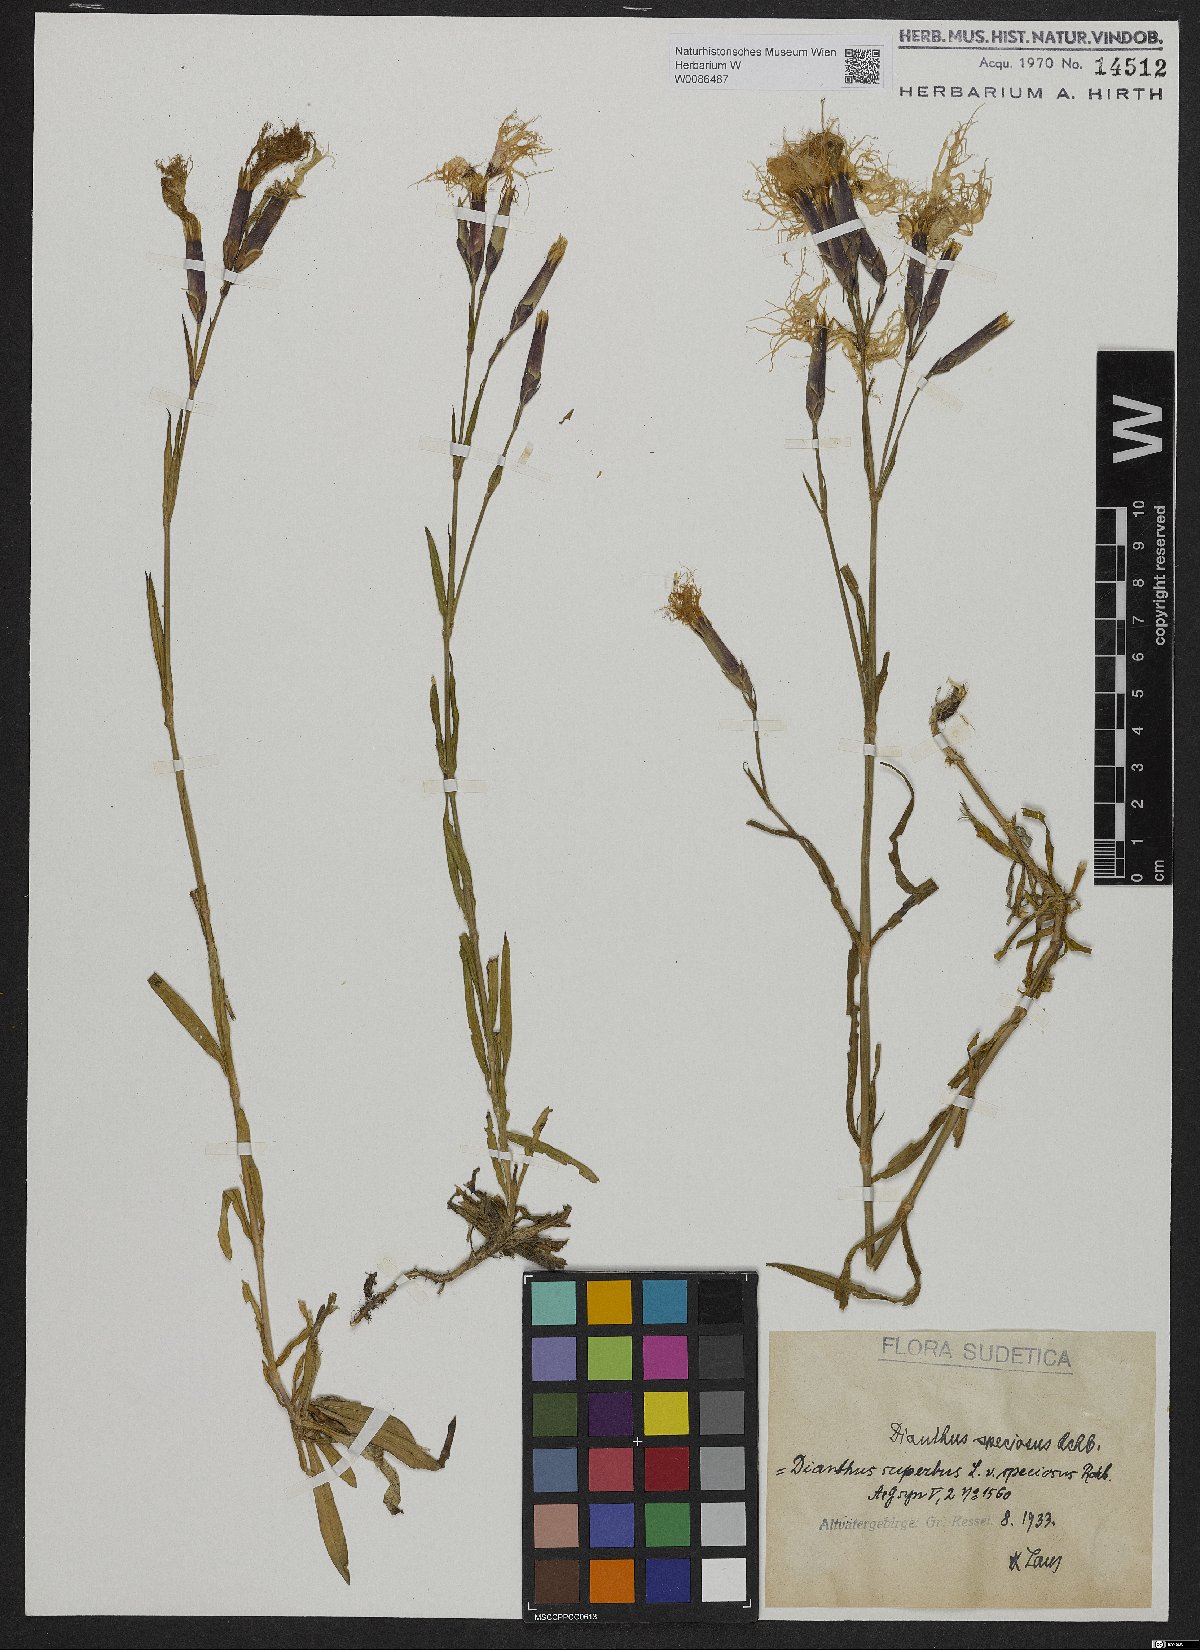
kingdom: Plantae
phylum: Tracheophyta
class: Magnoliopsida
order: Caryophyllales
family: Caryophyllaceae
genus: Dianthus
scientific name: Dianthus superbus
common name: Fringed pink
